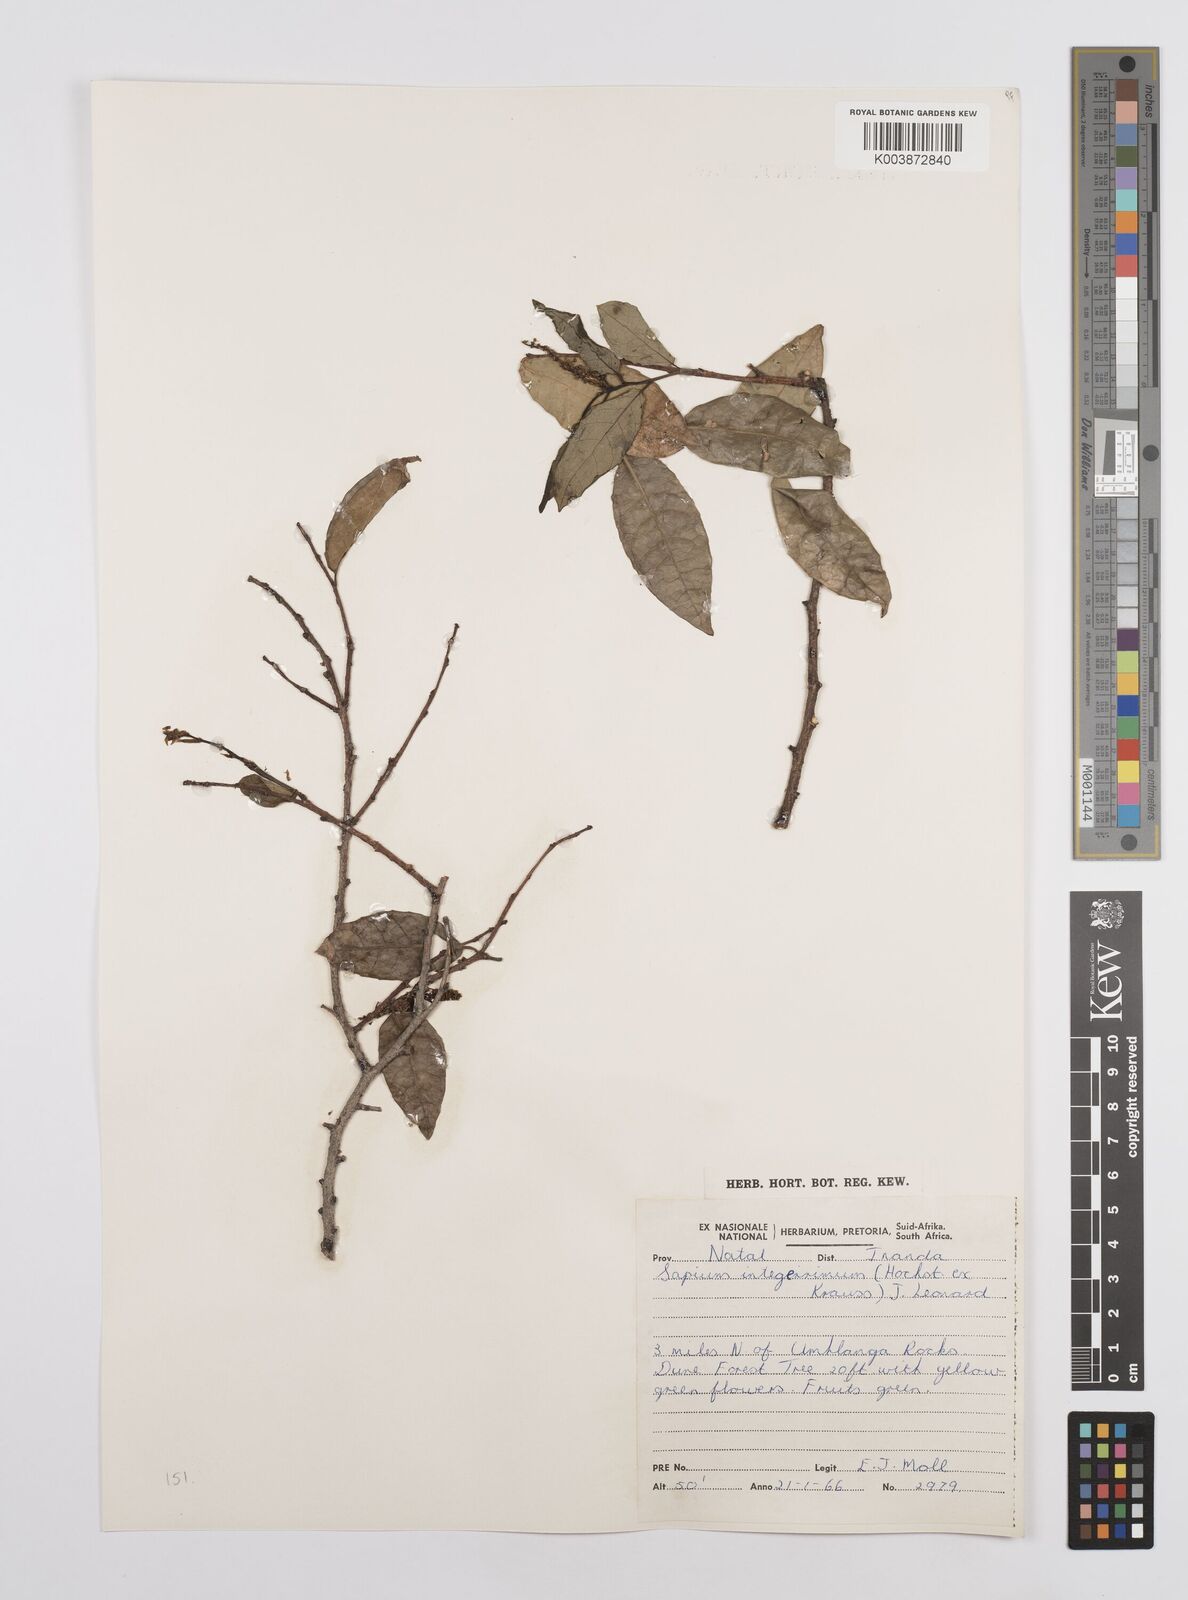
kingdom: Plantae
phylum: Tracheophyta
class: Magnoliopsida
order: Malpighiales
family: Euphorbiaceae
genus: Sclerocroton
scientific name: Sclerocroton integerrimus
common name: Duiker berry
